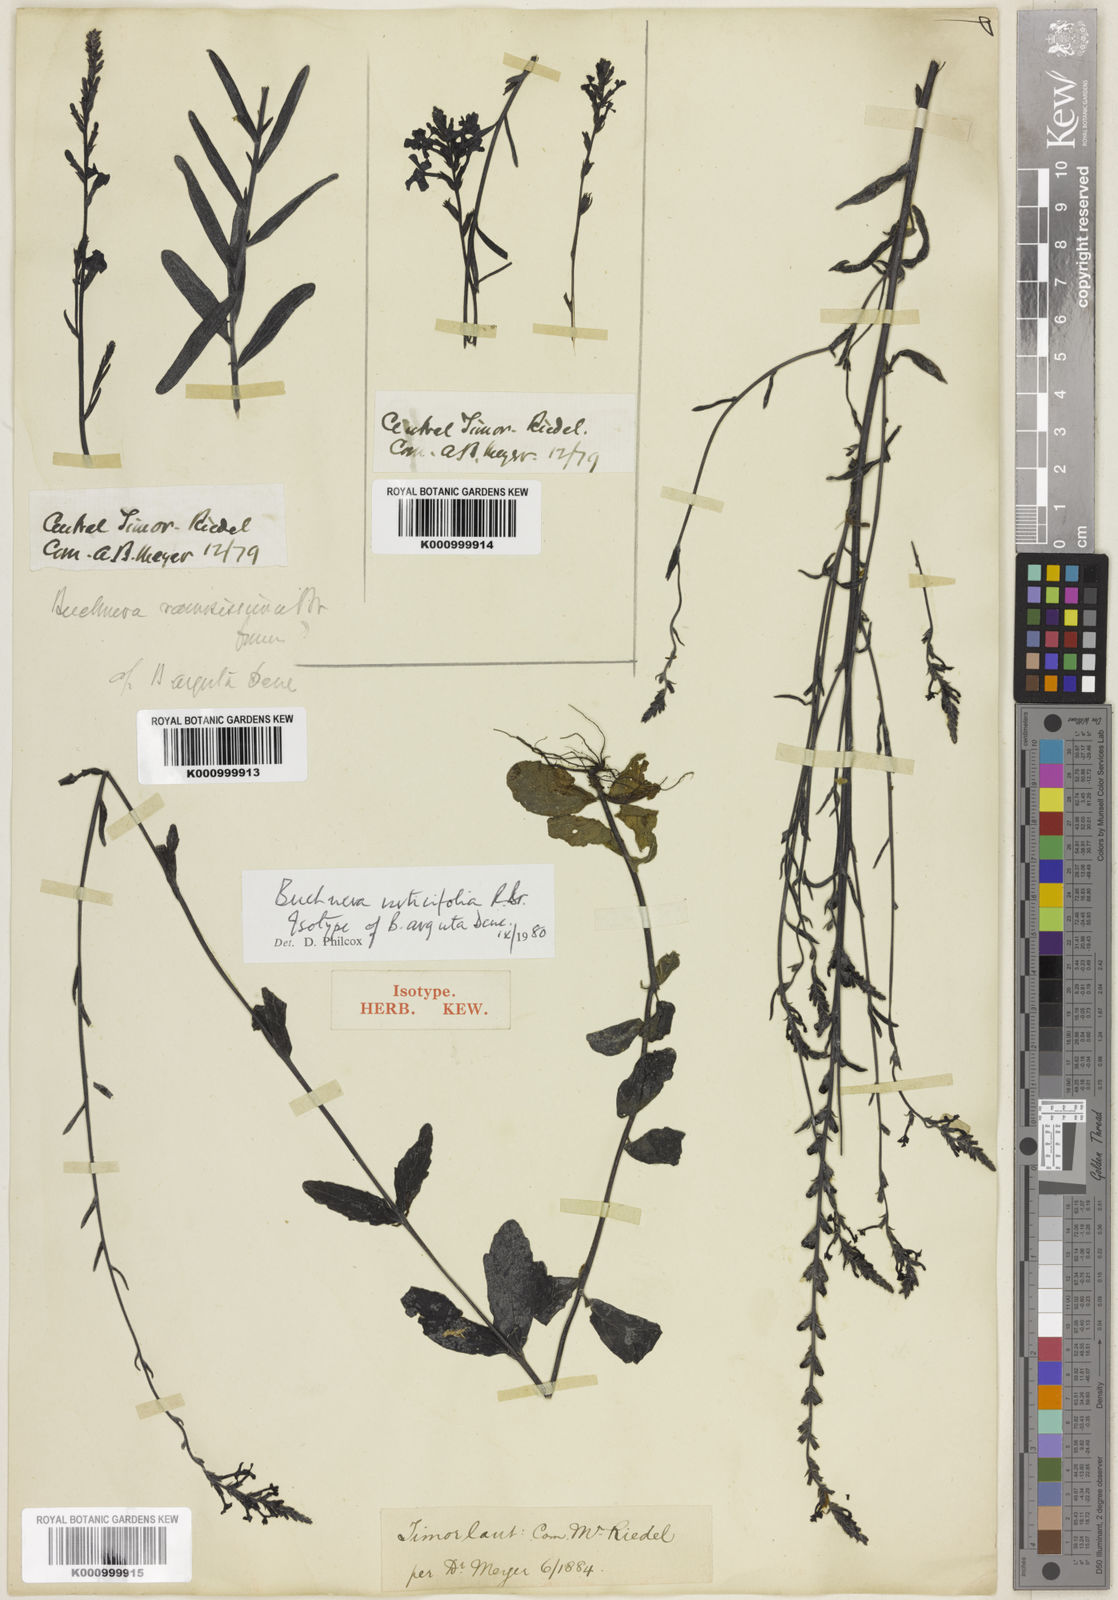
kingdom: Plantae
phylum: Tracheophyta
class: Magnoliopsida
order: Lamiales
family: Orobanchaceae
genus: Buchnera
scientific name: Buchnera urticifolia
